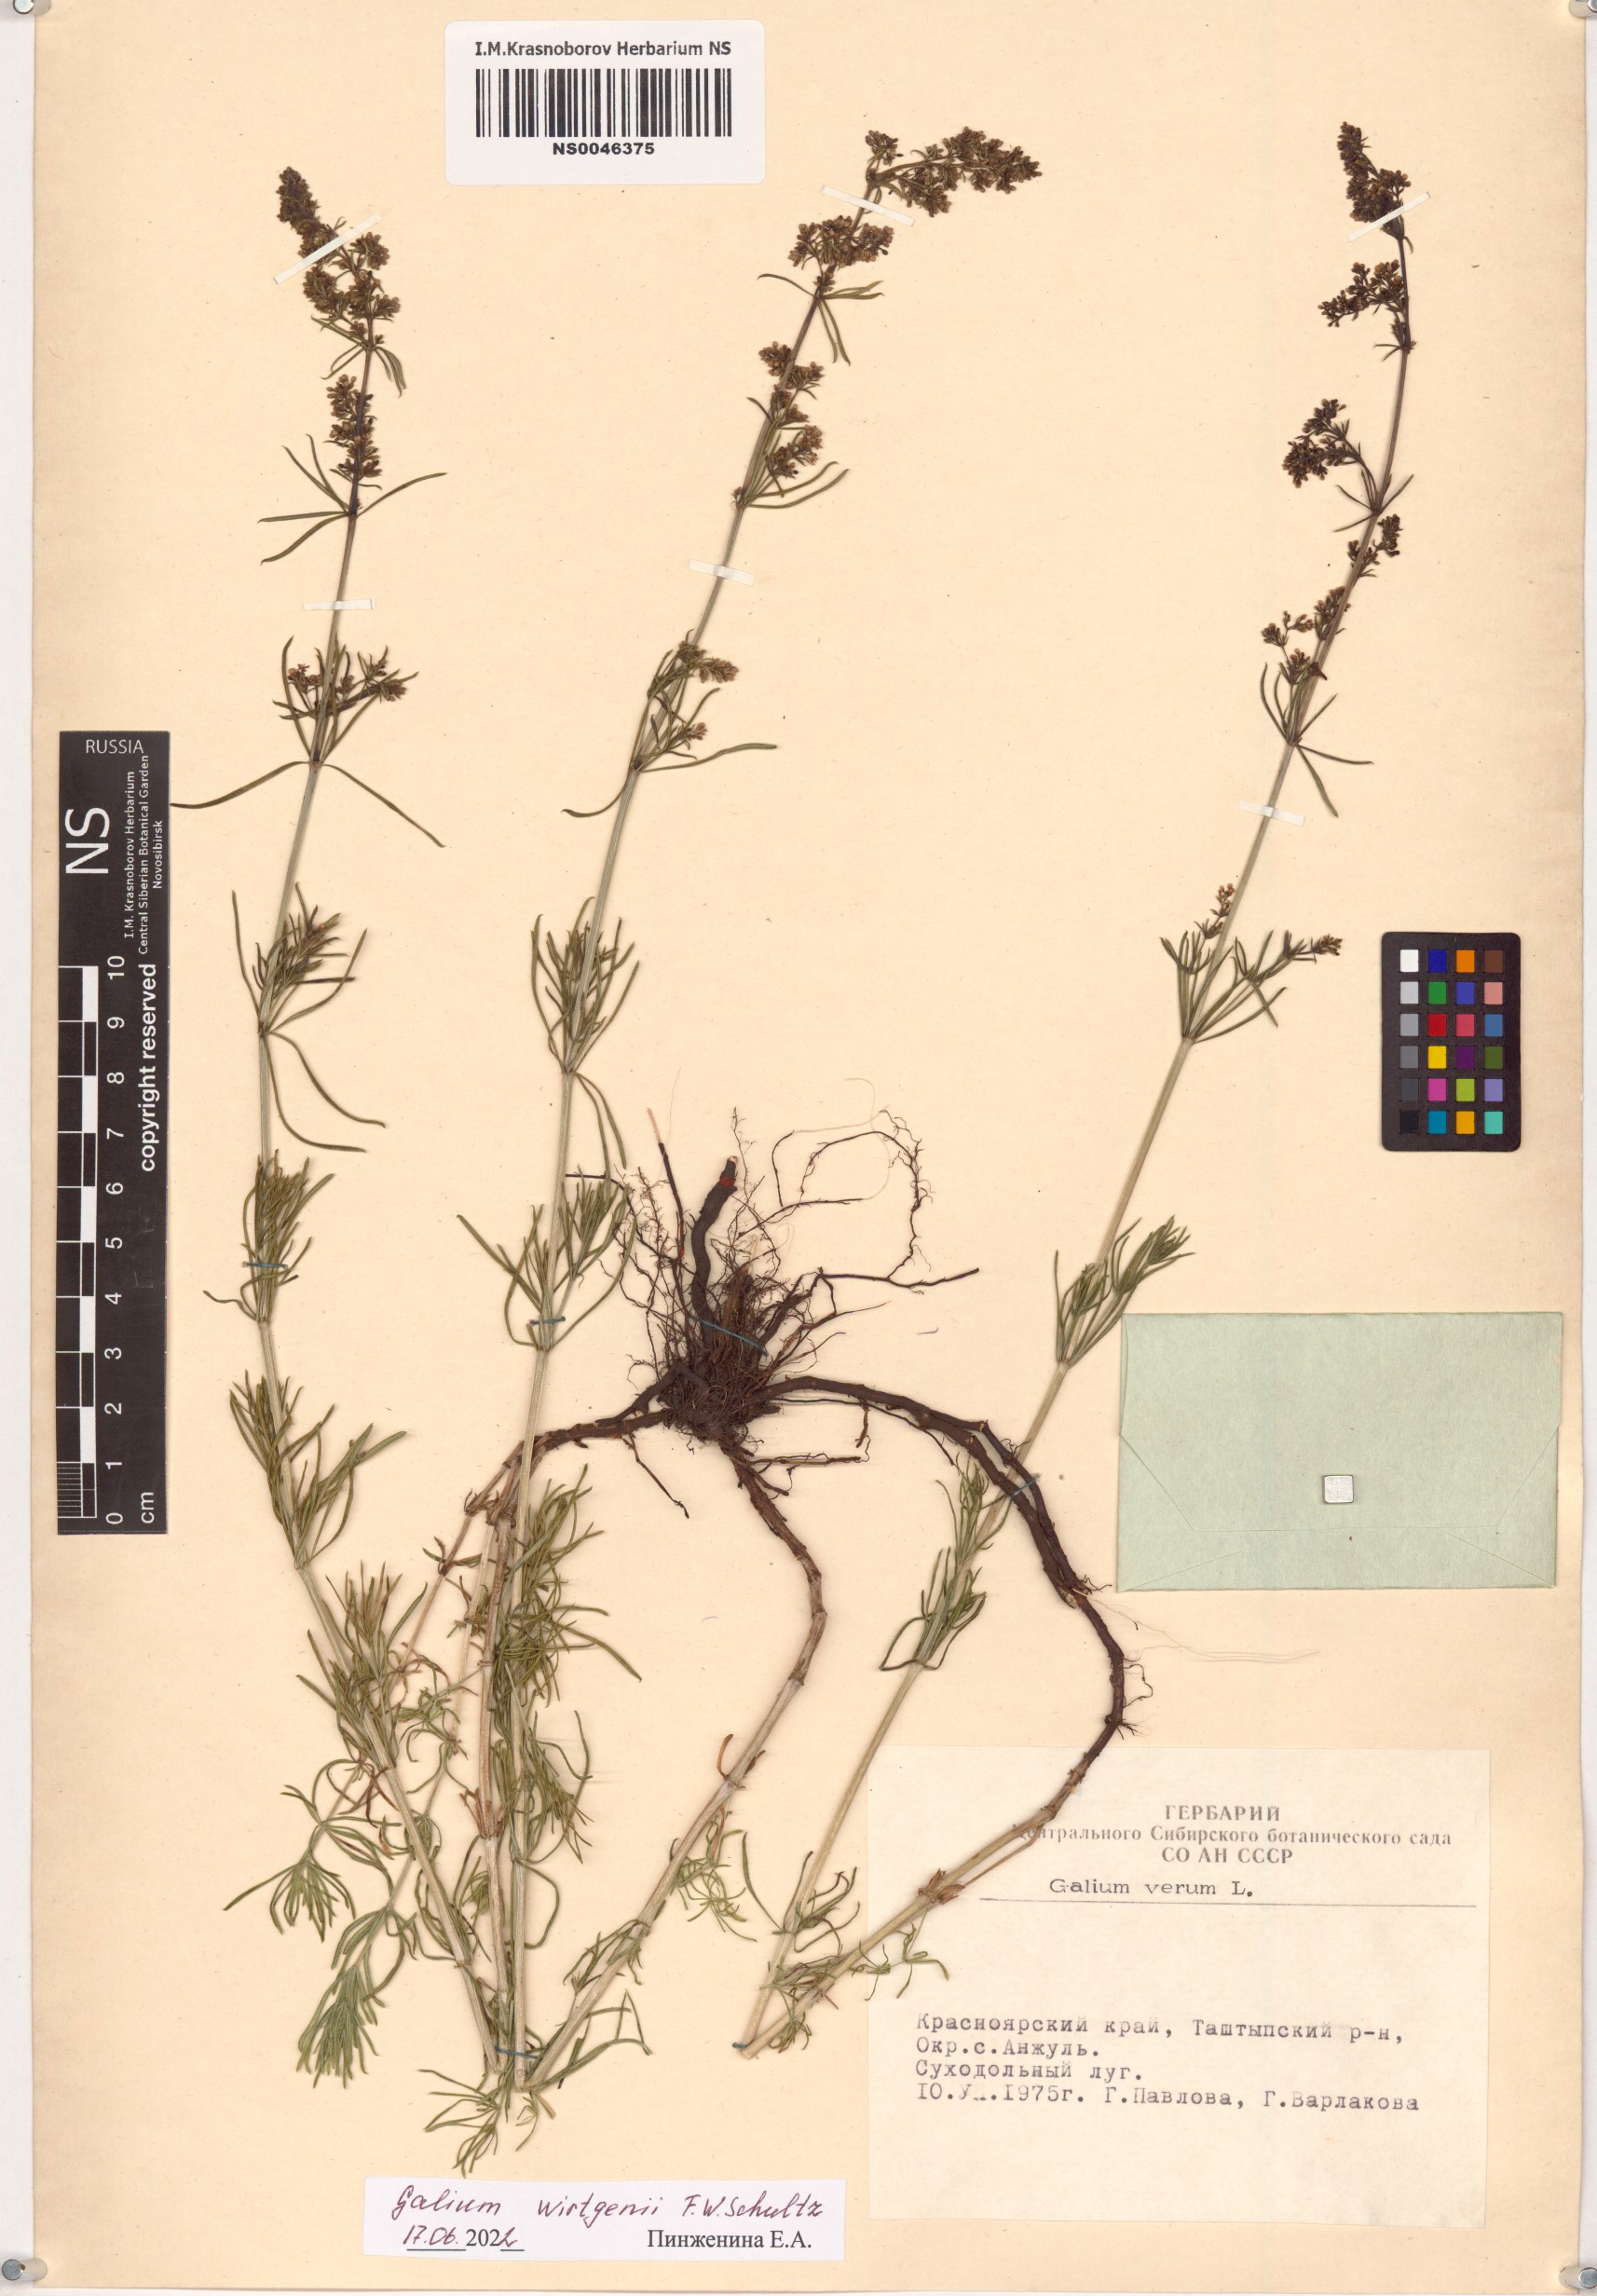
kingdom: Plantae
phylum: Tracheophyta
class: Magnoliopsida
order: Gentianales
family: Rubiaceae
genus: Galium
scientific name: Galium verum
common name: Lady's bedstraw
